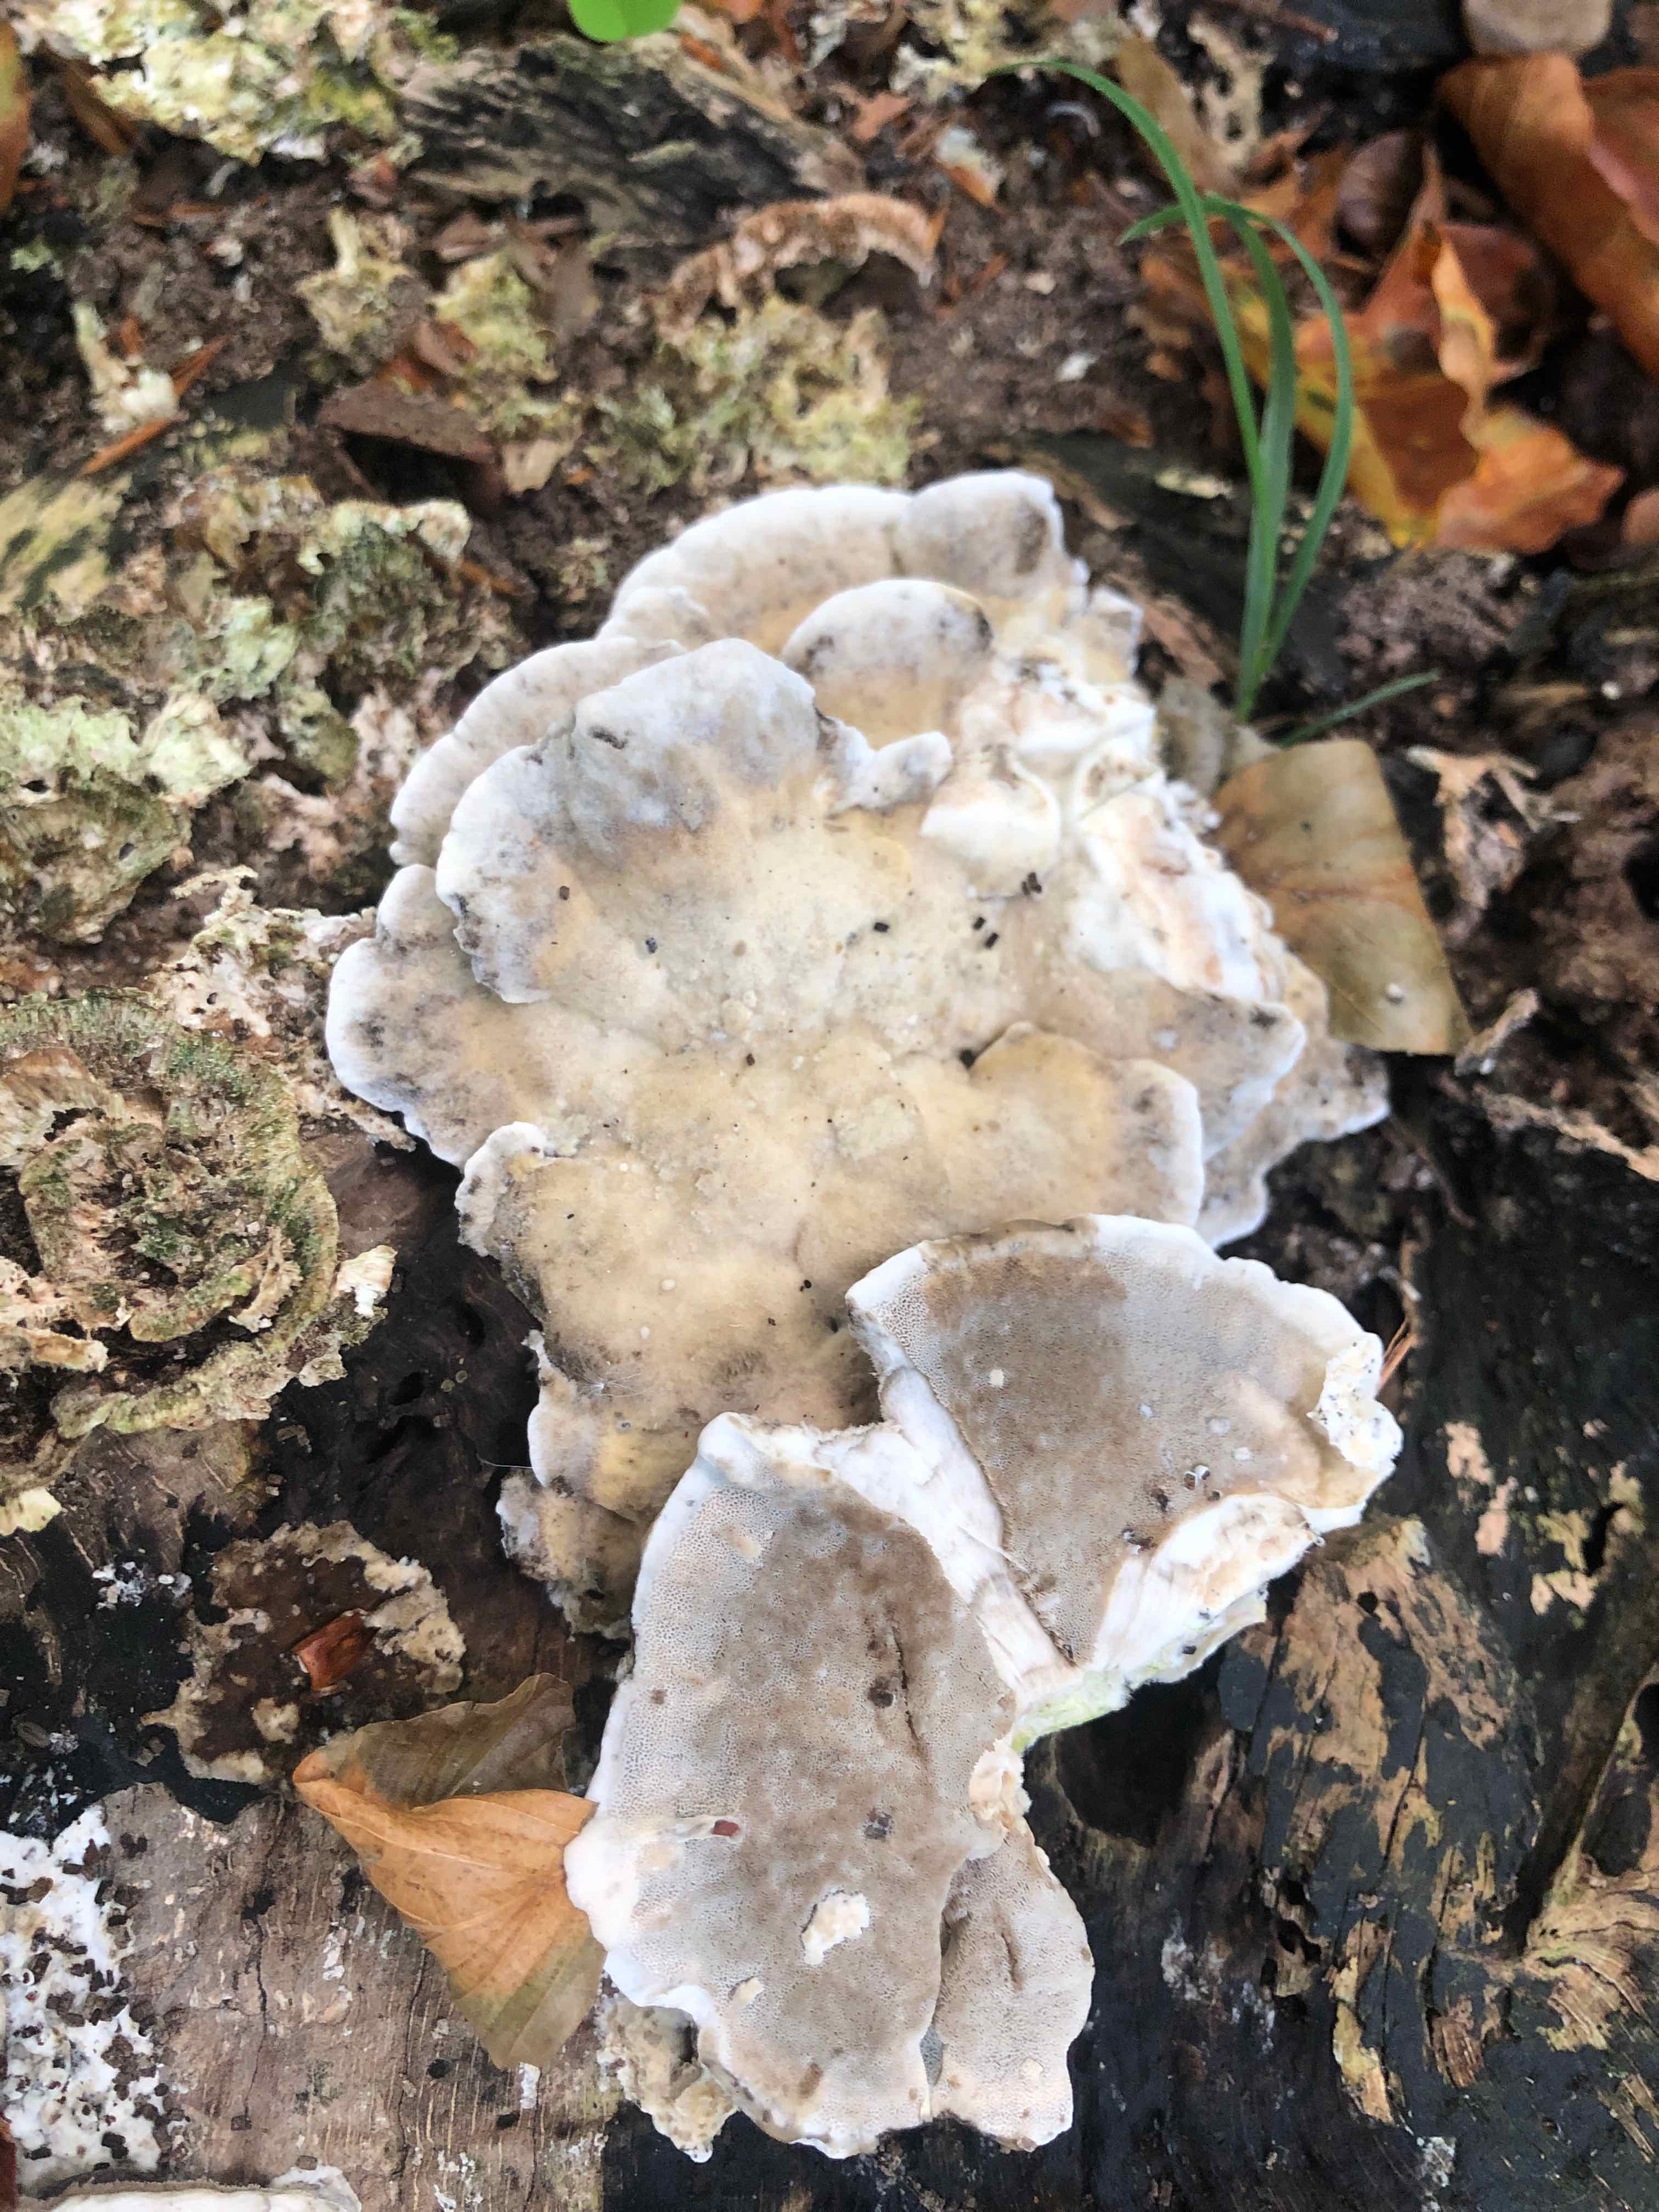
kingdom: Fungi
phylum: Basidiomycota
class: Agaricomycetes
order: Polyporales
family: Phanerochaetaceae
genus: Bjerkandera
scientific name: Bjerkandera adusta
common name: sveden sodporesvamp
